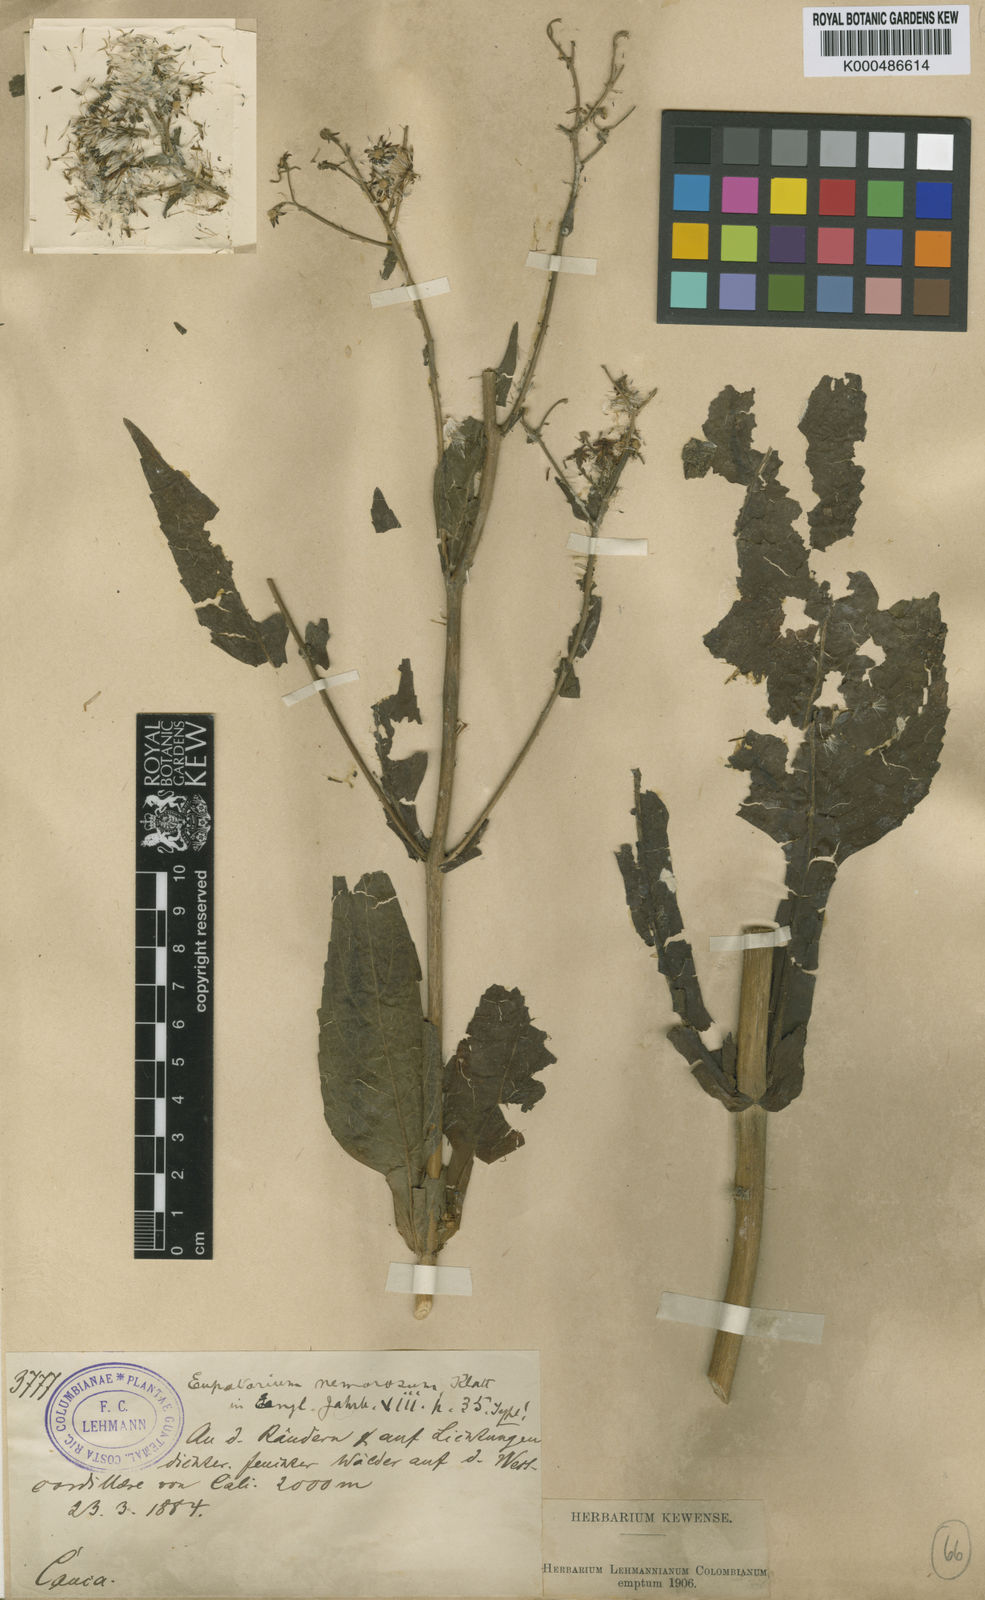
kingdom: Plantae
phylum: Tracheophyta
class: Magnoliopsida
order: Asterales
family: Asteraceae
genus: Polyanthina
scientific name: Polyanthina nemorosa
